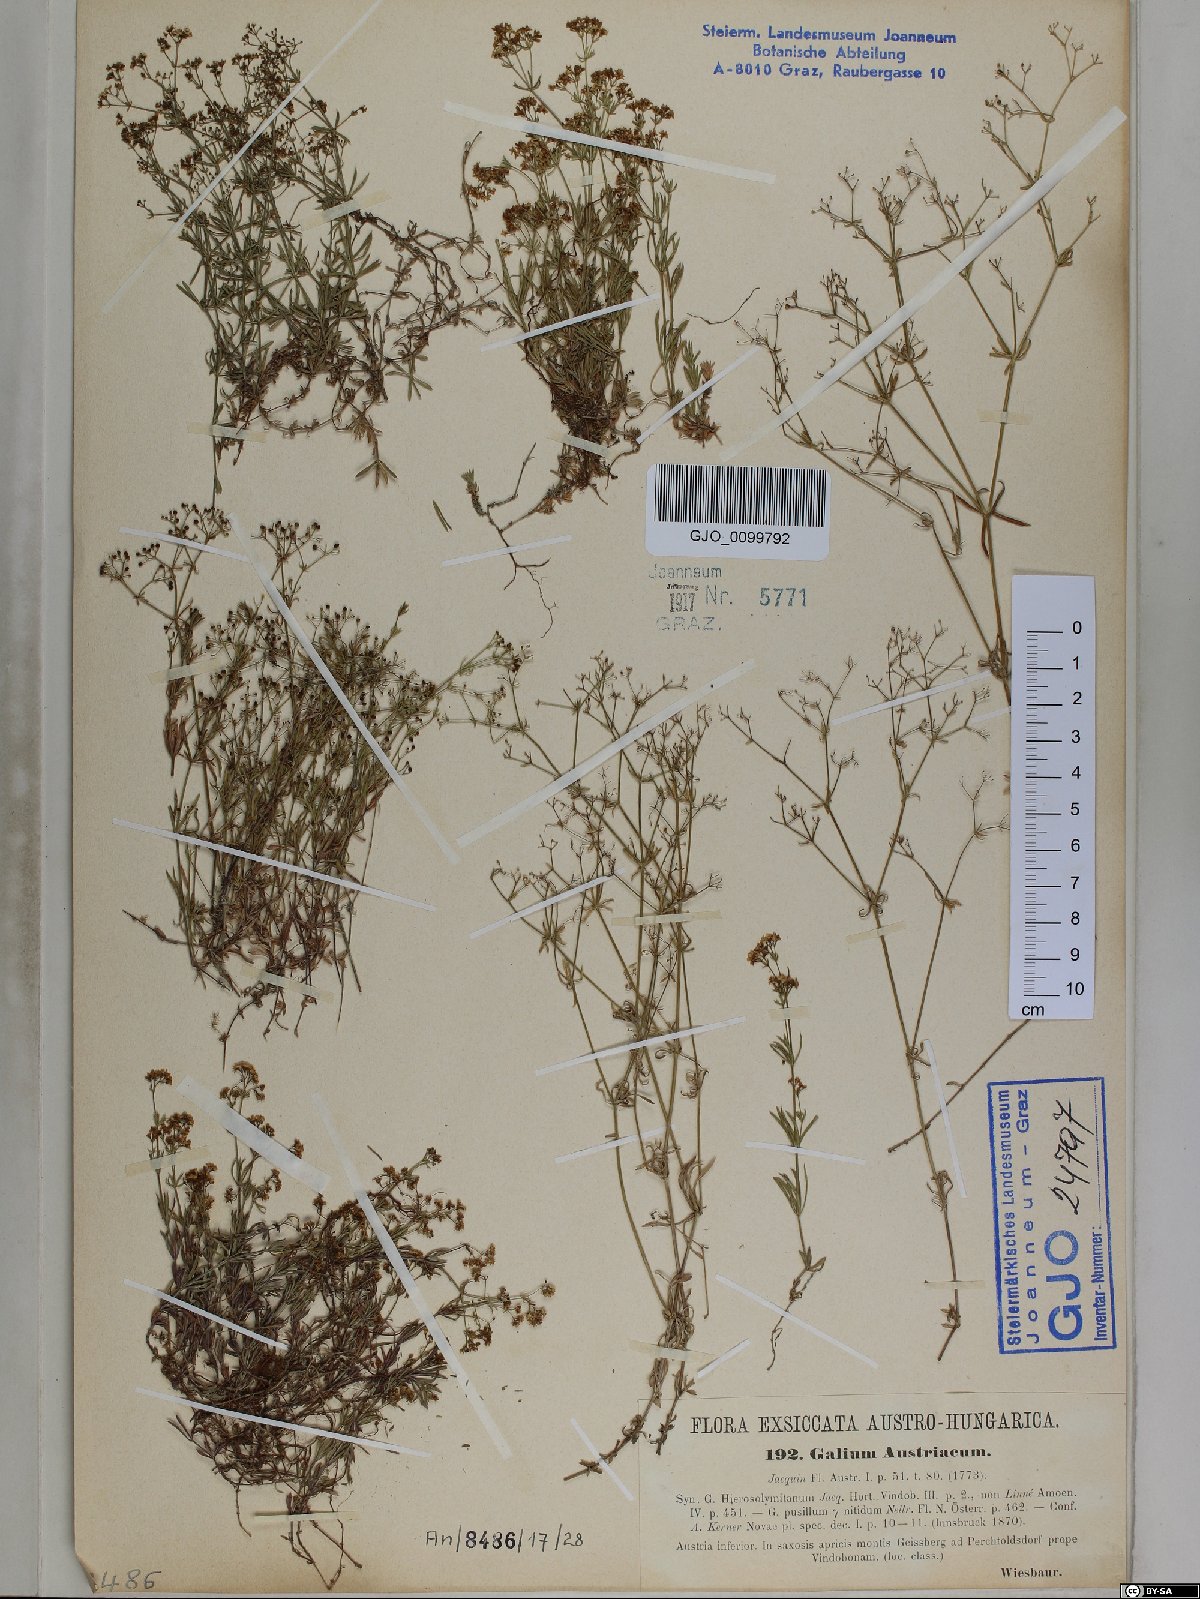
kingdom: Plantae
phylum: Tracheophyta
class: Magnoliopsida
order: Gentianales
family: Rubiaceae
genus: Galium
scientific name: Galium austriacum
